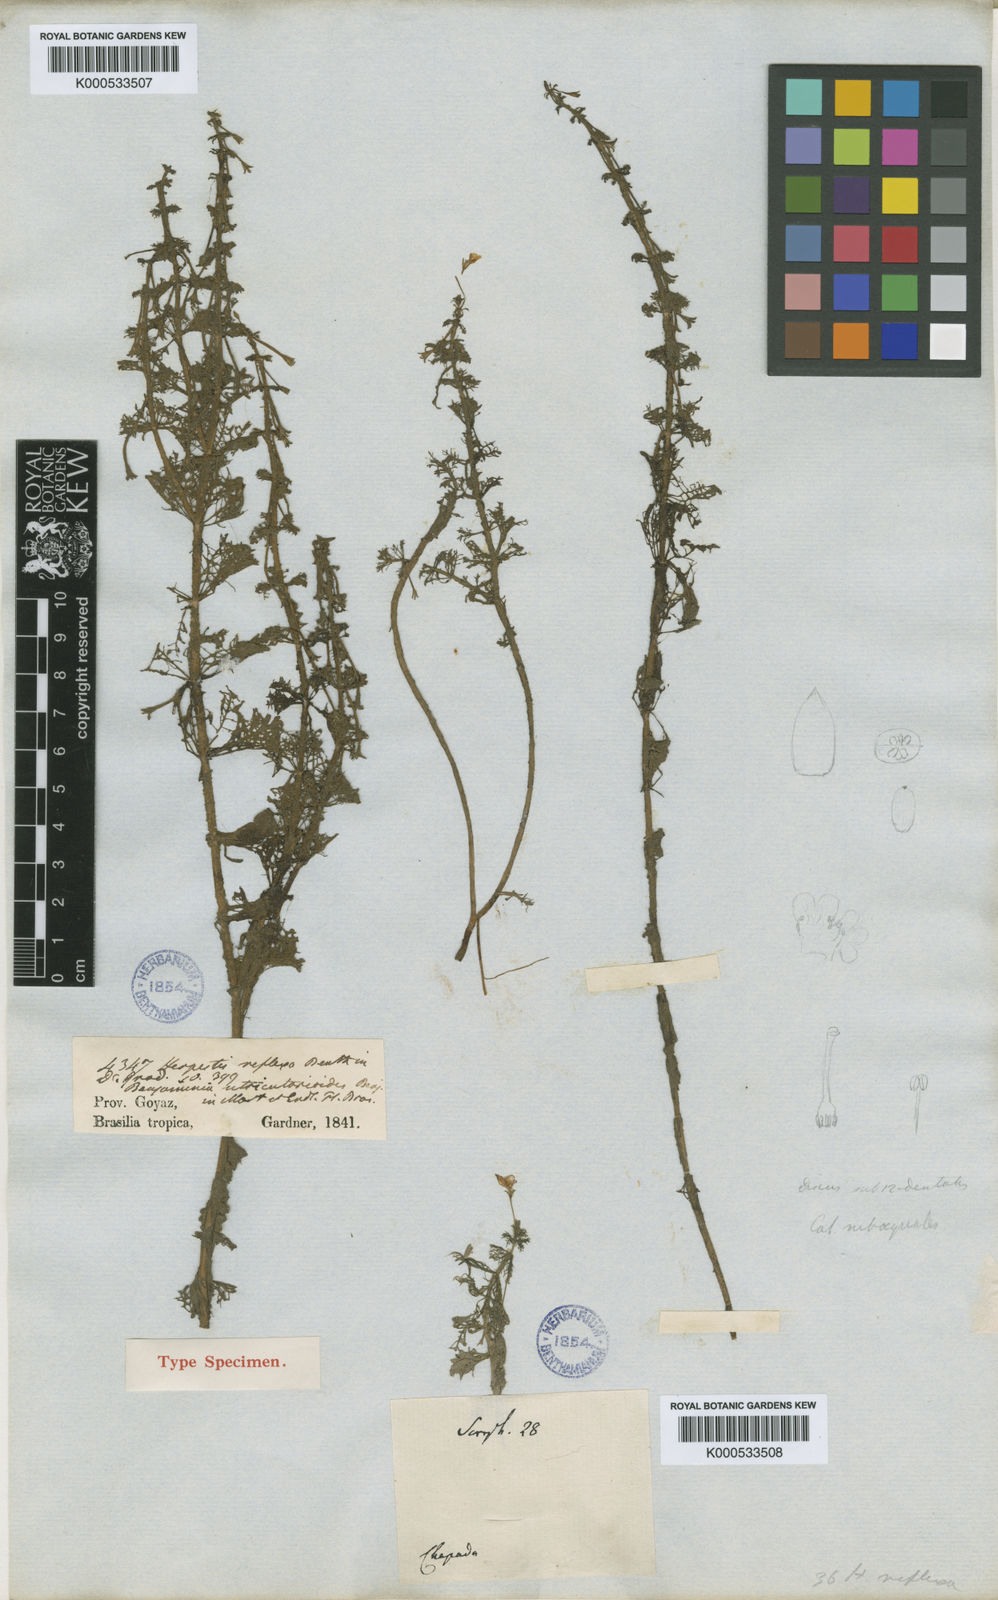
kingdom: Plantae
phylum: Tracheophyta
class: Magnoliopsida
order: Lamiales
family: Plantaginaceae
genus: Bacopa
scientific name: Bacopa reflexa
